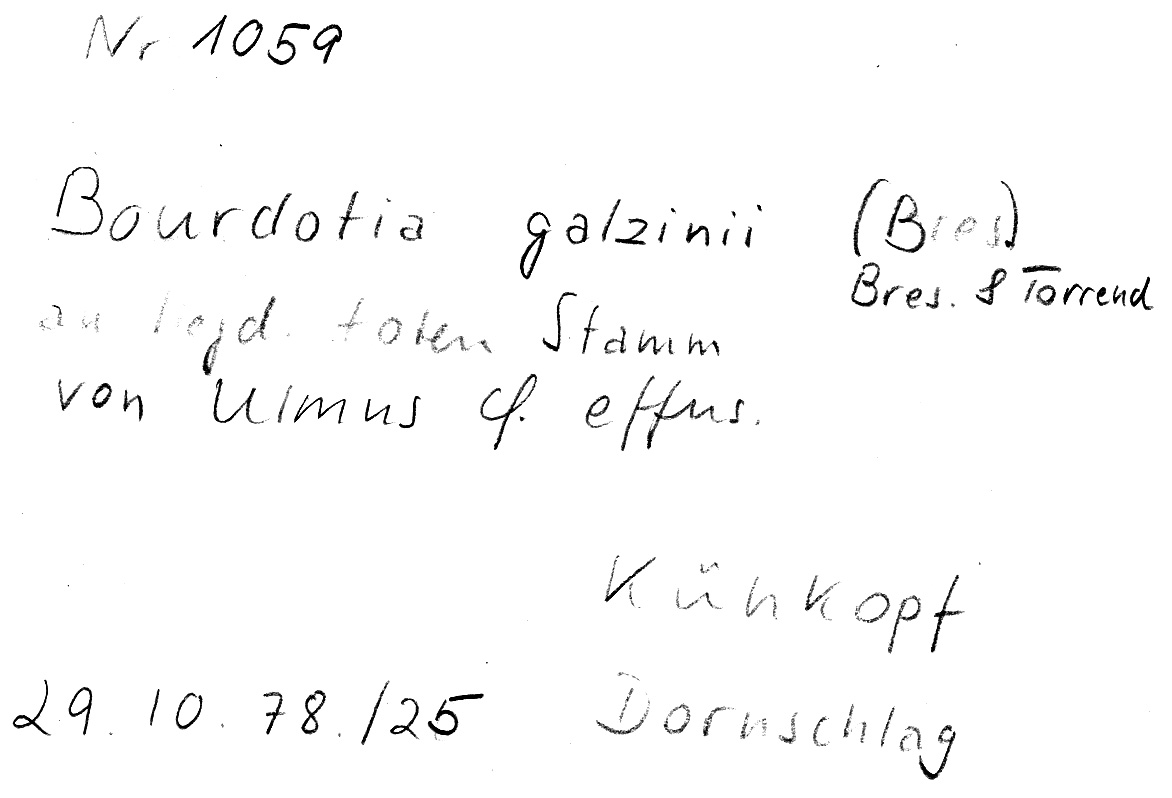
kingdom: Plantae
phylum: Tracheophyta
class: Magnoliopsida
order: Rosales
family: Ulmaceae
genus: Ulmus
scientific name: Ulmus effusa
